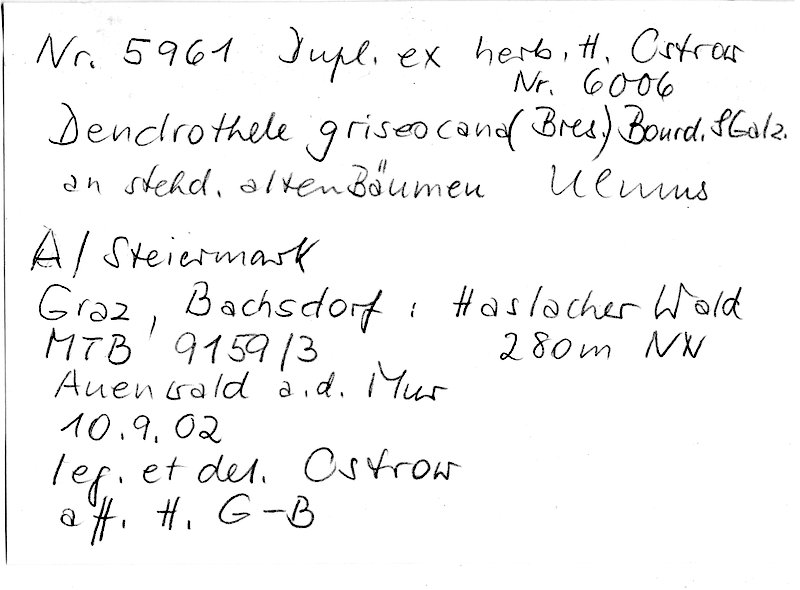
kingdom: Plantae
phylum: Tracheophyta
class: Magnoliopsida
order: Rosales
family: Ulmaceae
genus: Ulmus
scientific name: Ulmus
